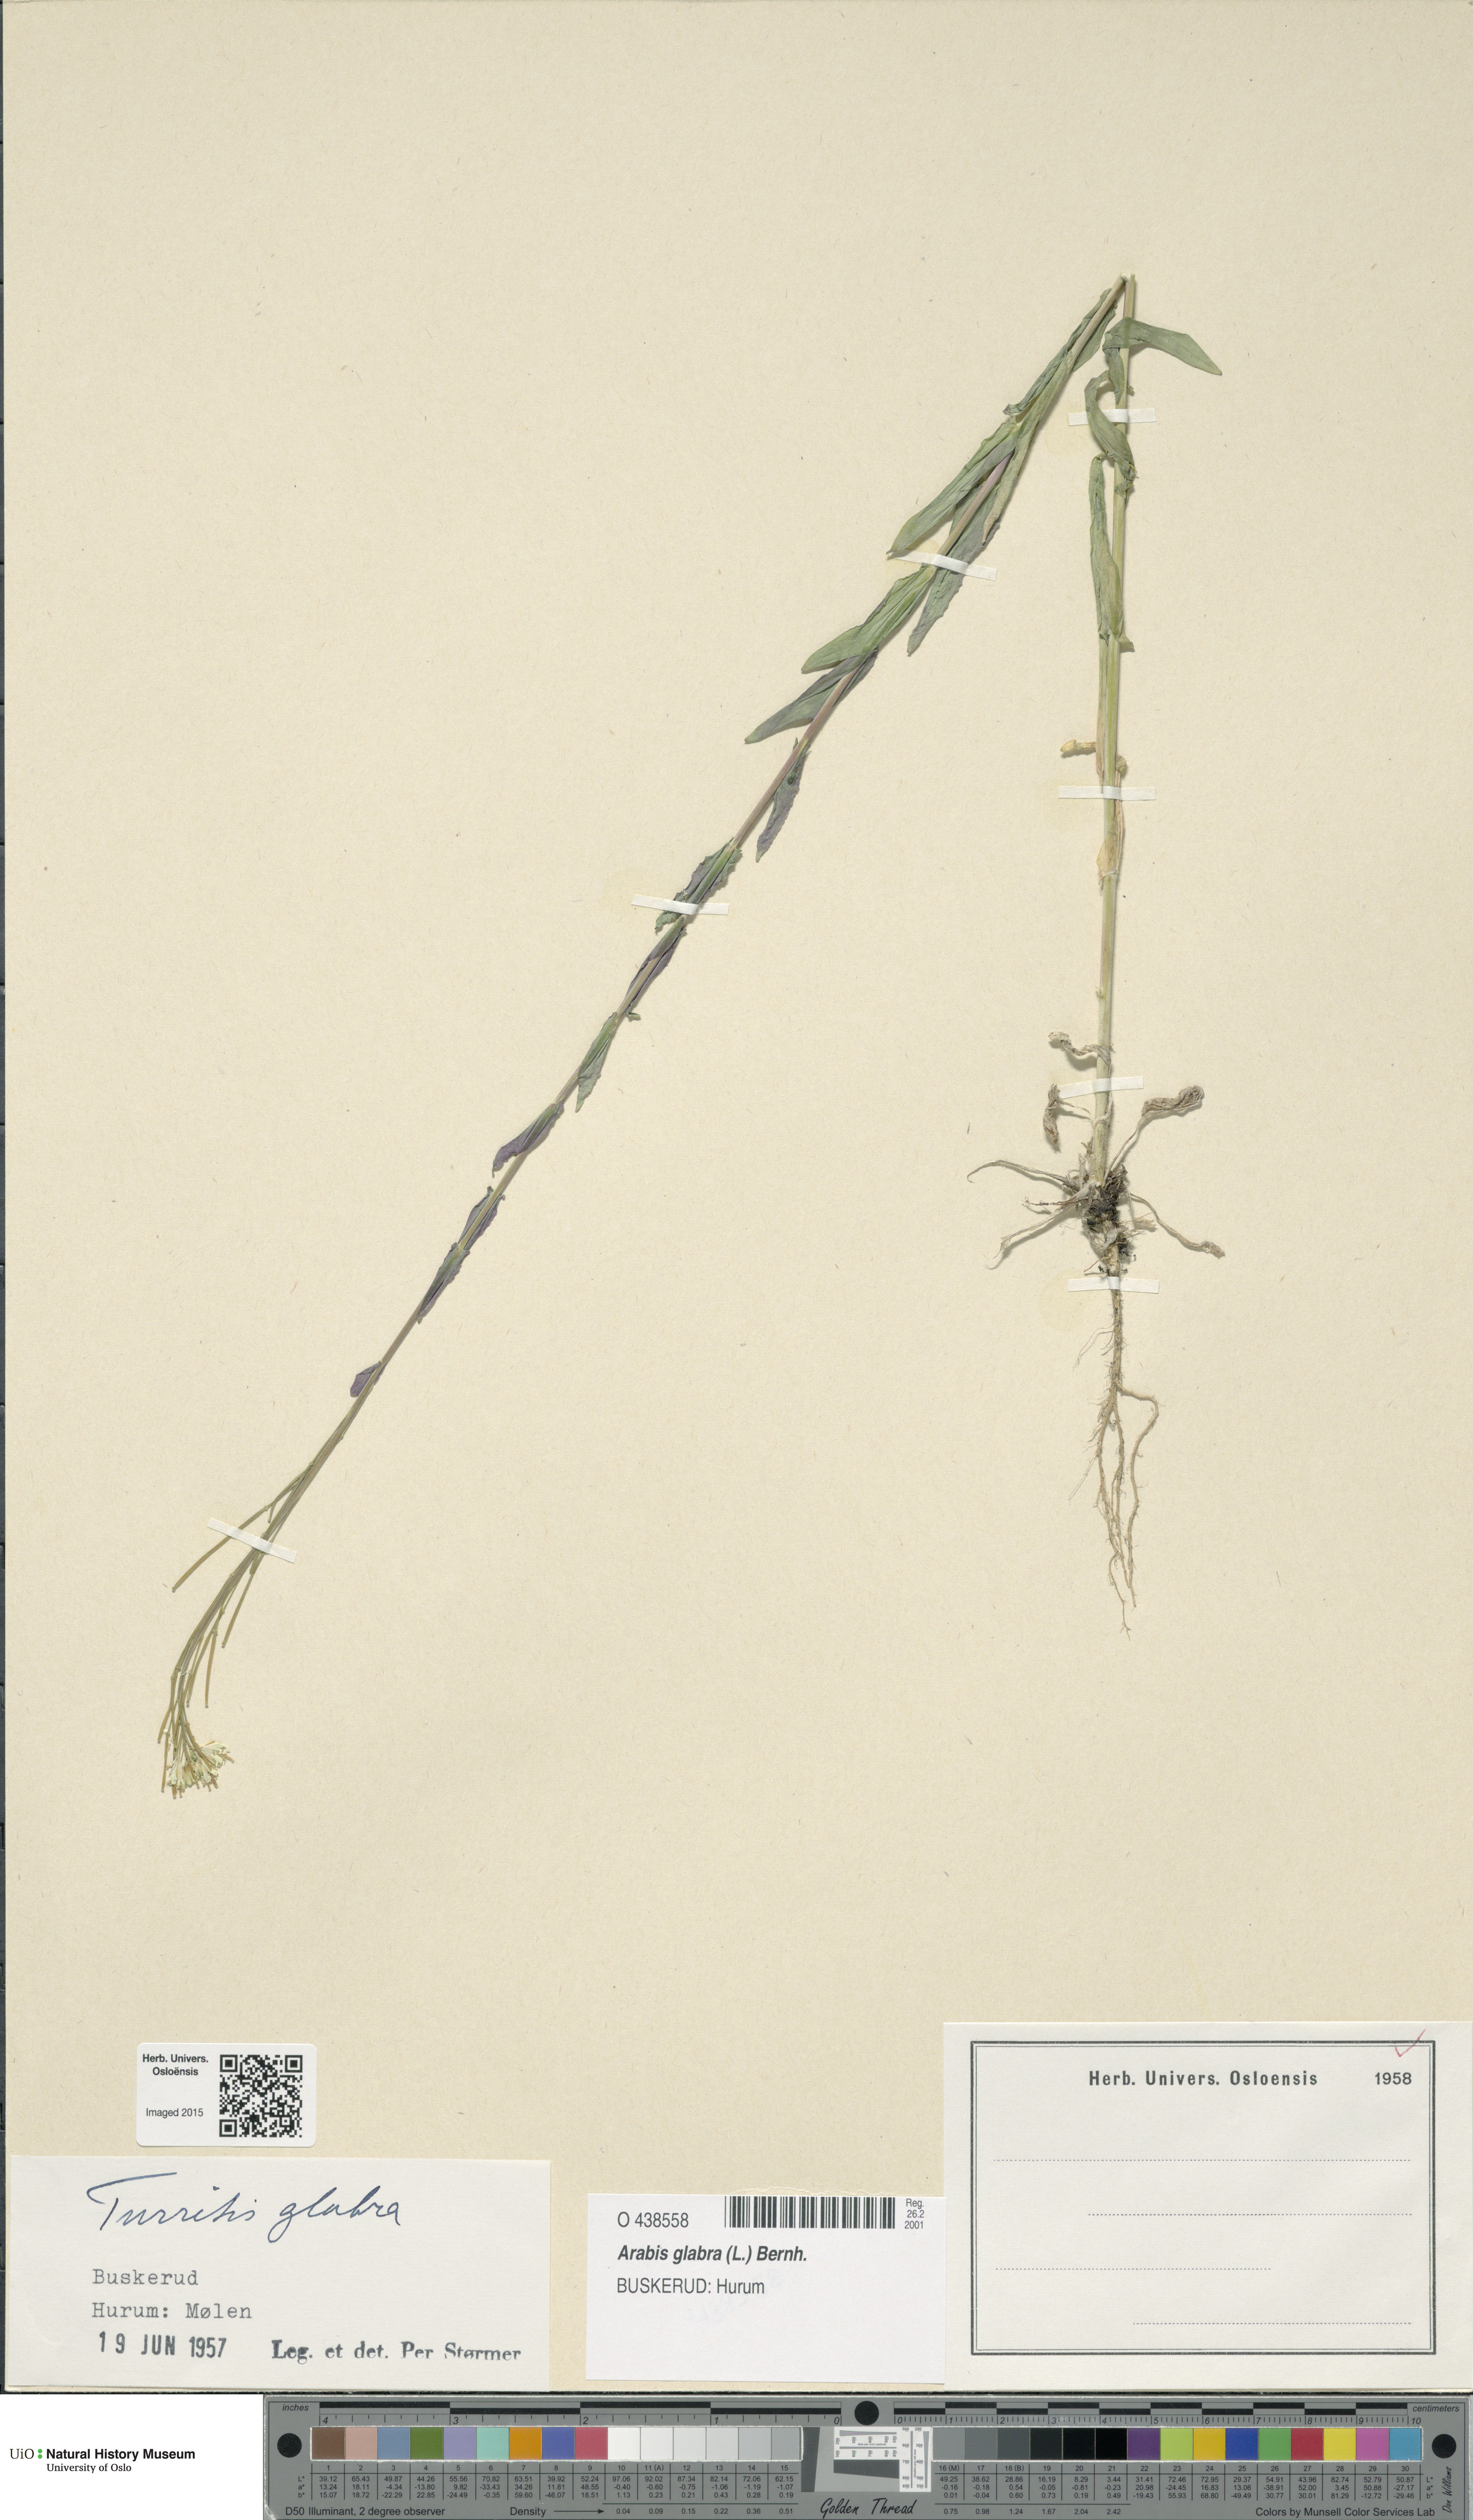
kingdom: Plantae
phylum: Tracheophyta
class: Magnoliopsida
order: Brassicales
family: Brassicaceae
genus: Turritis
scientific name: Turritis glabra
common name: Tower rockcress
